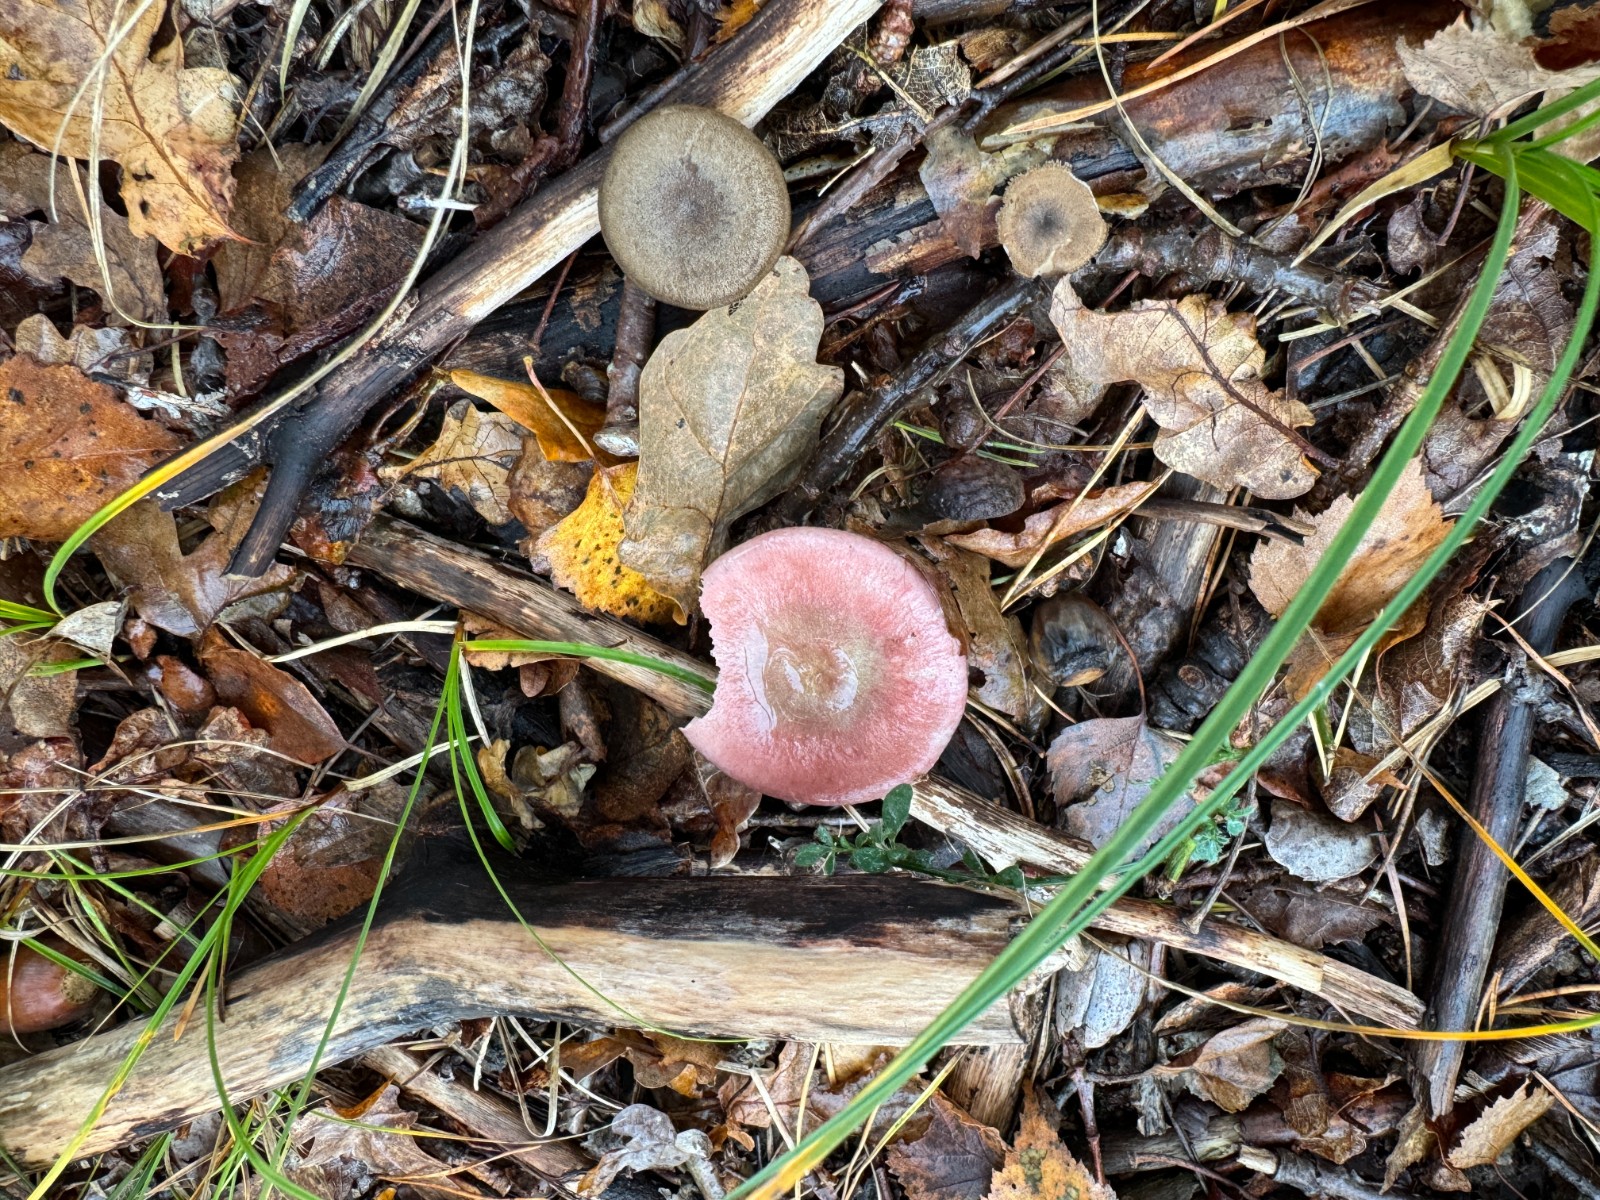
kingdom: Fungi
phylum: Basidiomycota
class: Agaricomycetes
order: Russulales
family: Russulaceae
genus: Russula
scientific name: Russula
